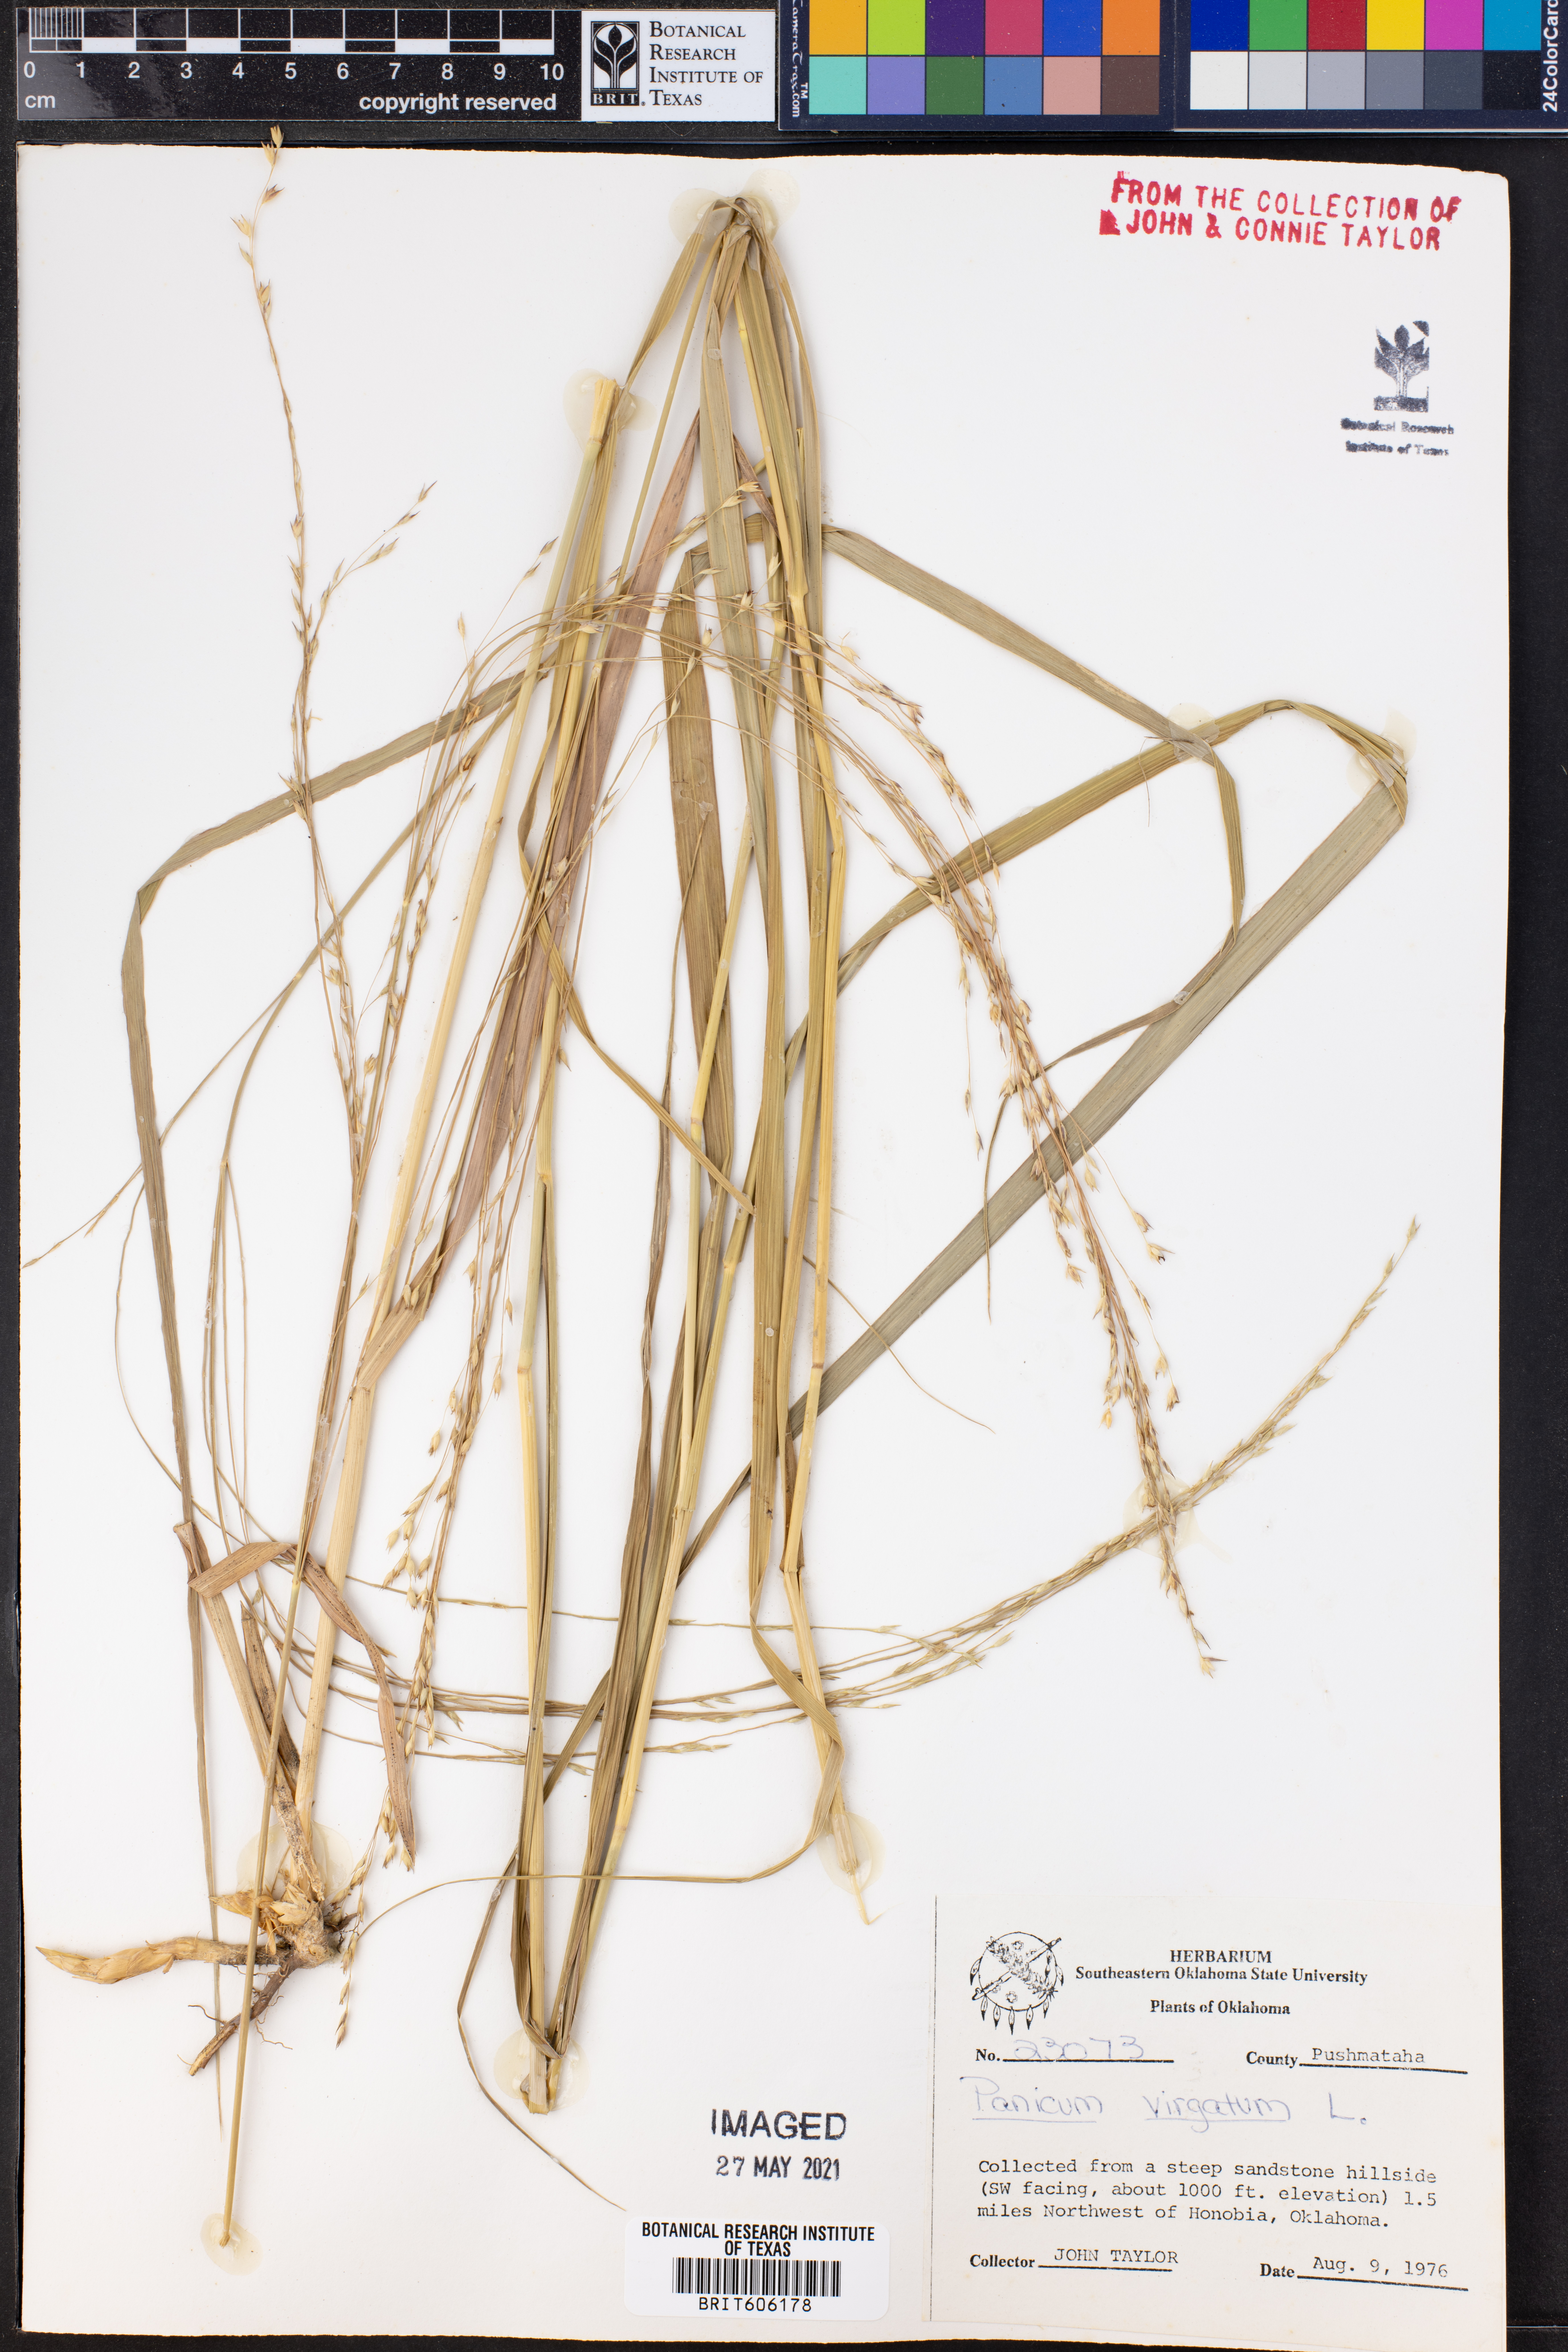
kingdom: Plantae
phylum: Tracheophyta
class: Liliopsida
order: Poales
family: Poaceae
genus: Panicum
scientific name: Panicum virgatum
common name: Switchgrass
